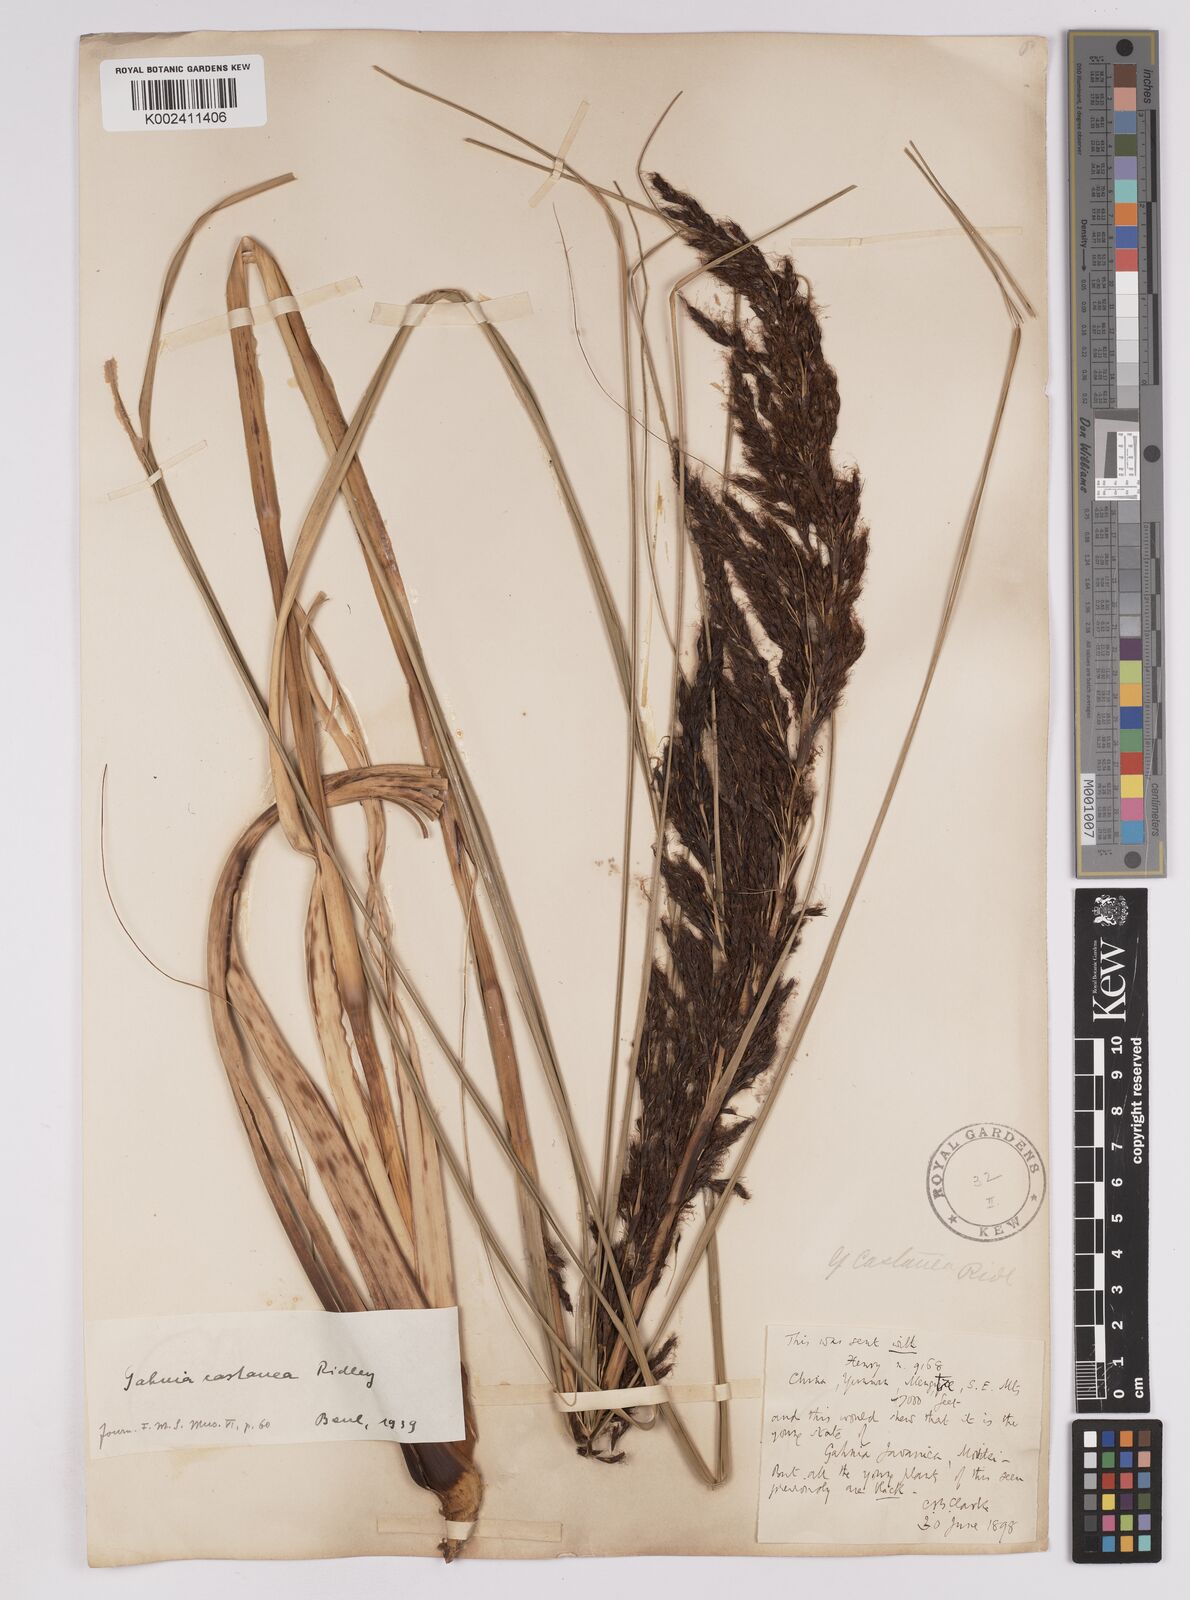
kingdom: Plantae
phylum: Tracheophyta
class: Liliopsida
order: Poales
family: Cyperaceae
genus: Gahnia
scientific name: Gahnia javanica
